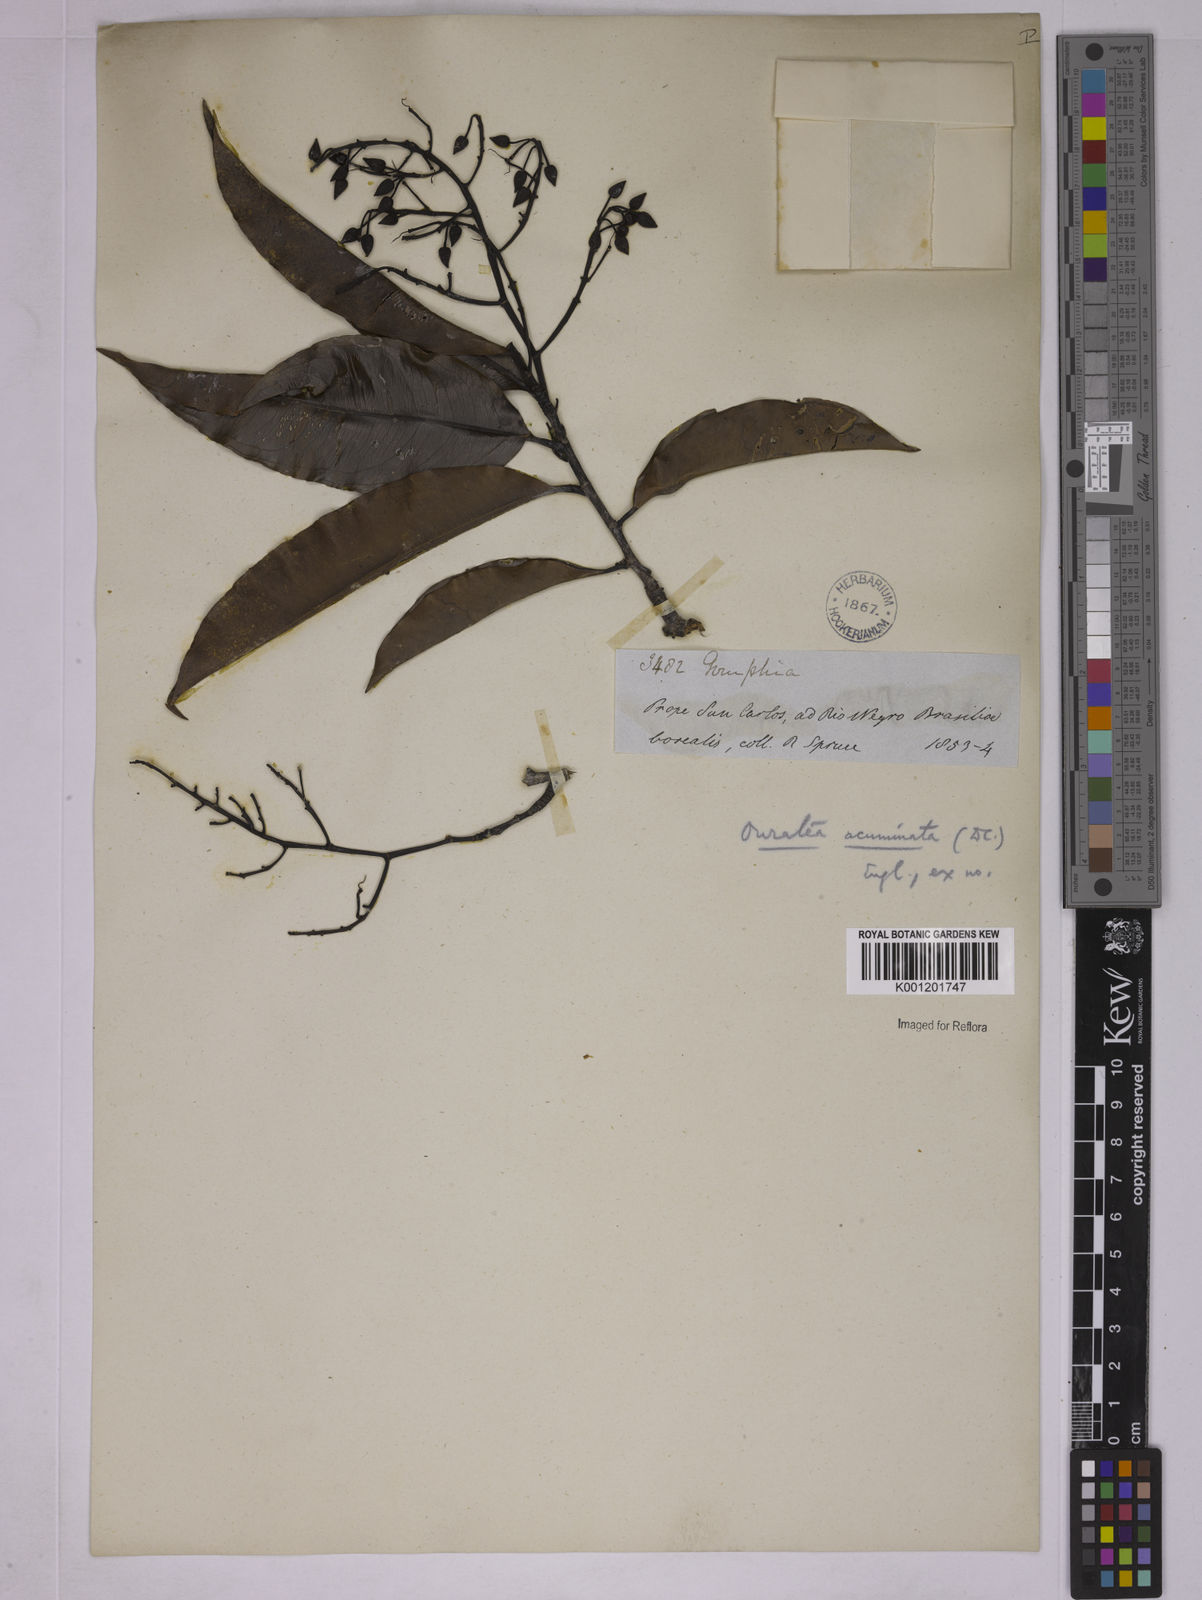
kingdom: Plantae
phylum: Tracheophyta
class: Magnoliopsida
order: Malpighiales
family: Ochnaceae
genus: Ouratea
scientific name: Ouratea acuminata
